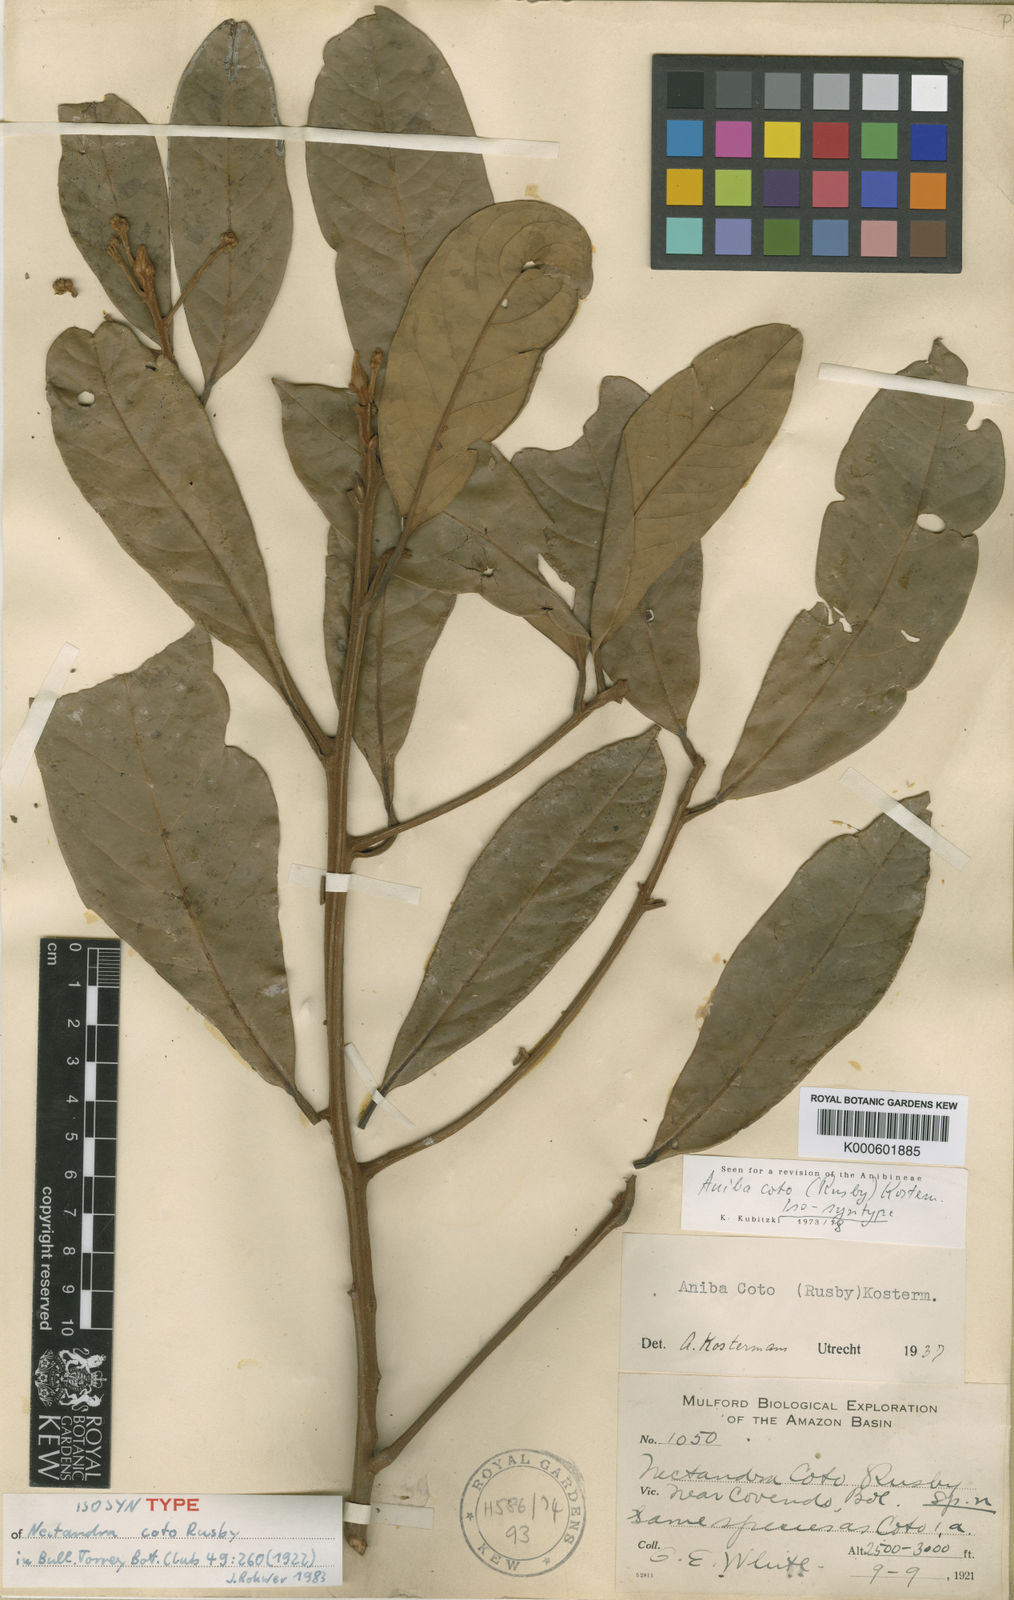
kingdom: Plantae
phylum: Tracheophyta
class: Magnoliopsida
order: Laurales
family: Lauraceae
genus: Aniba
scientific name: Aniba coto
